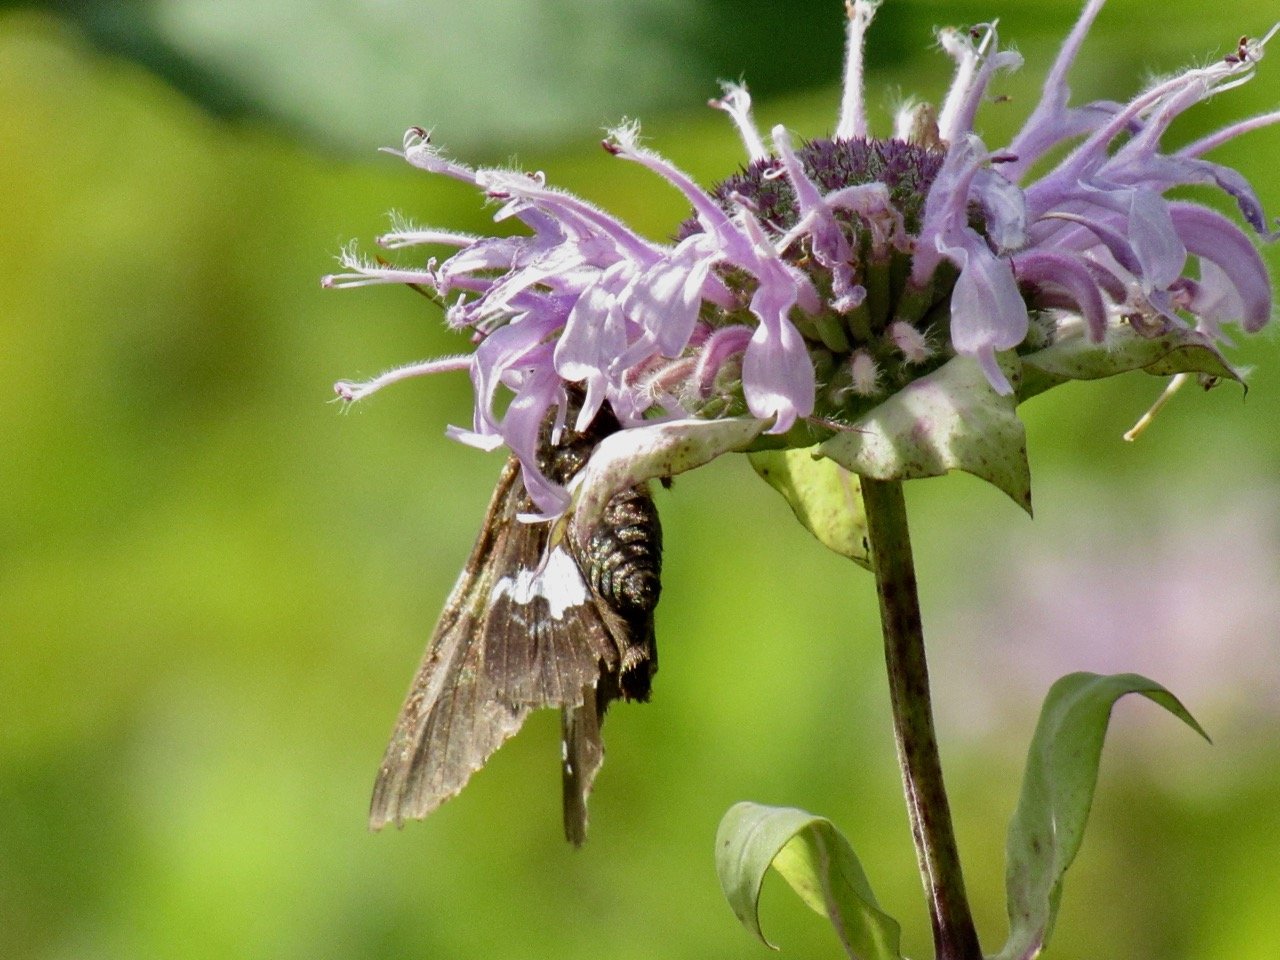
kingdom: Animalia
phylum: Arthropoda
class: Insecta
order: Lepidoptera
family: Hesperiidae
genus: Epargyreus
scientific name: Epargyreus clarus
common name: Silver-spotted Skipper
